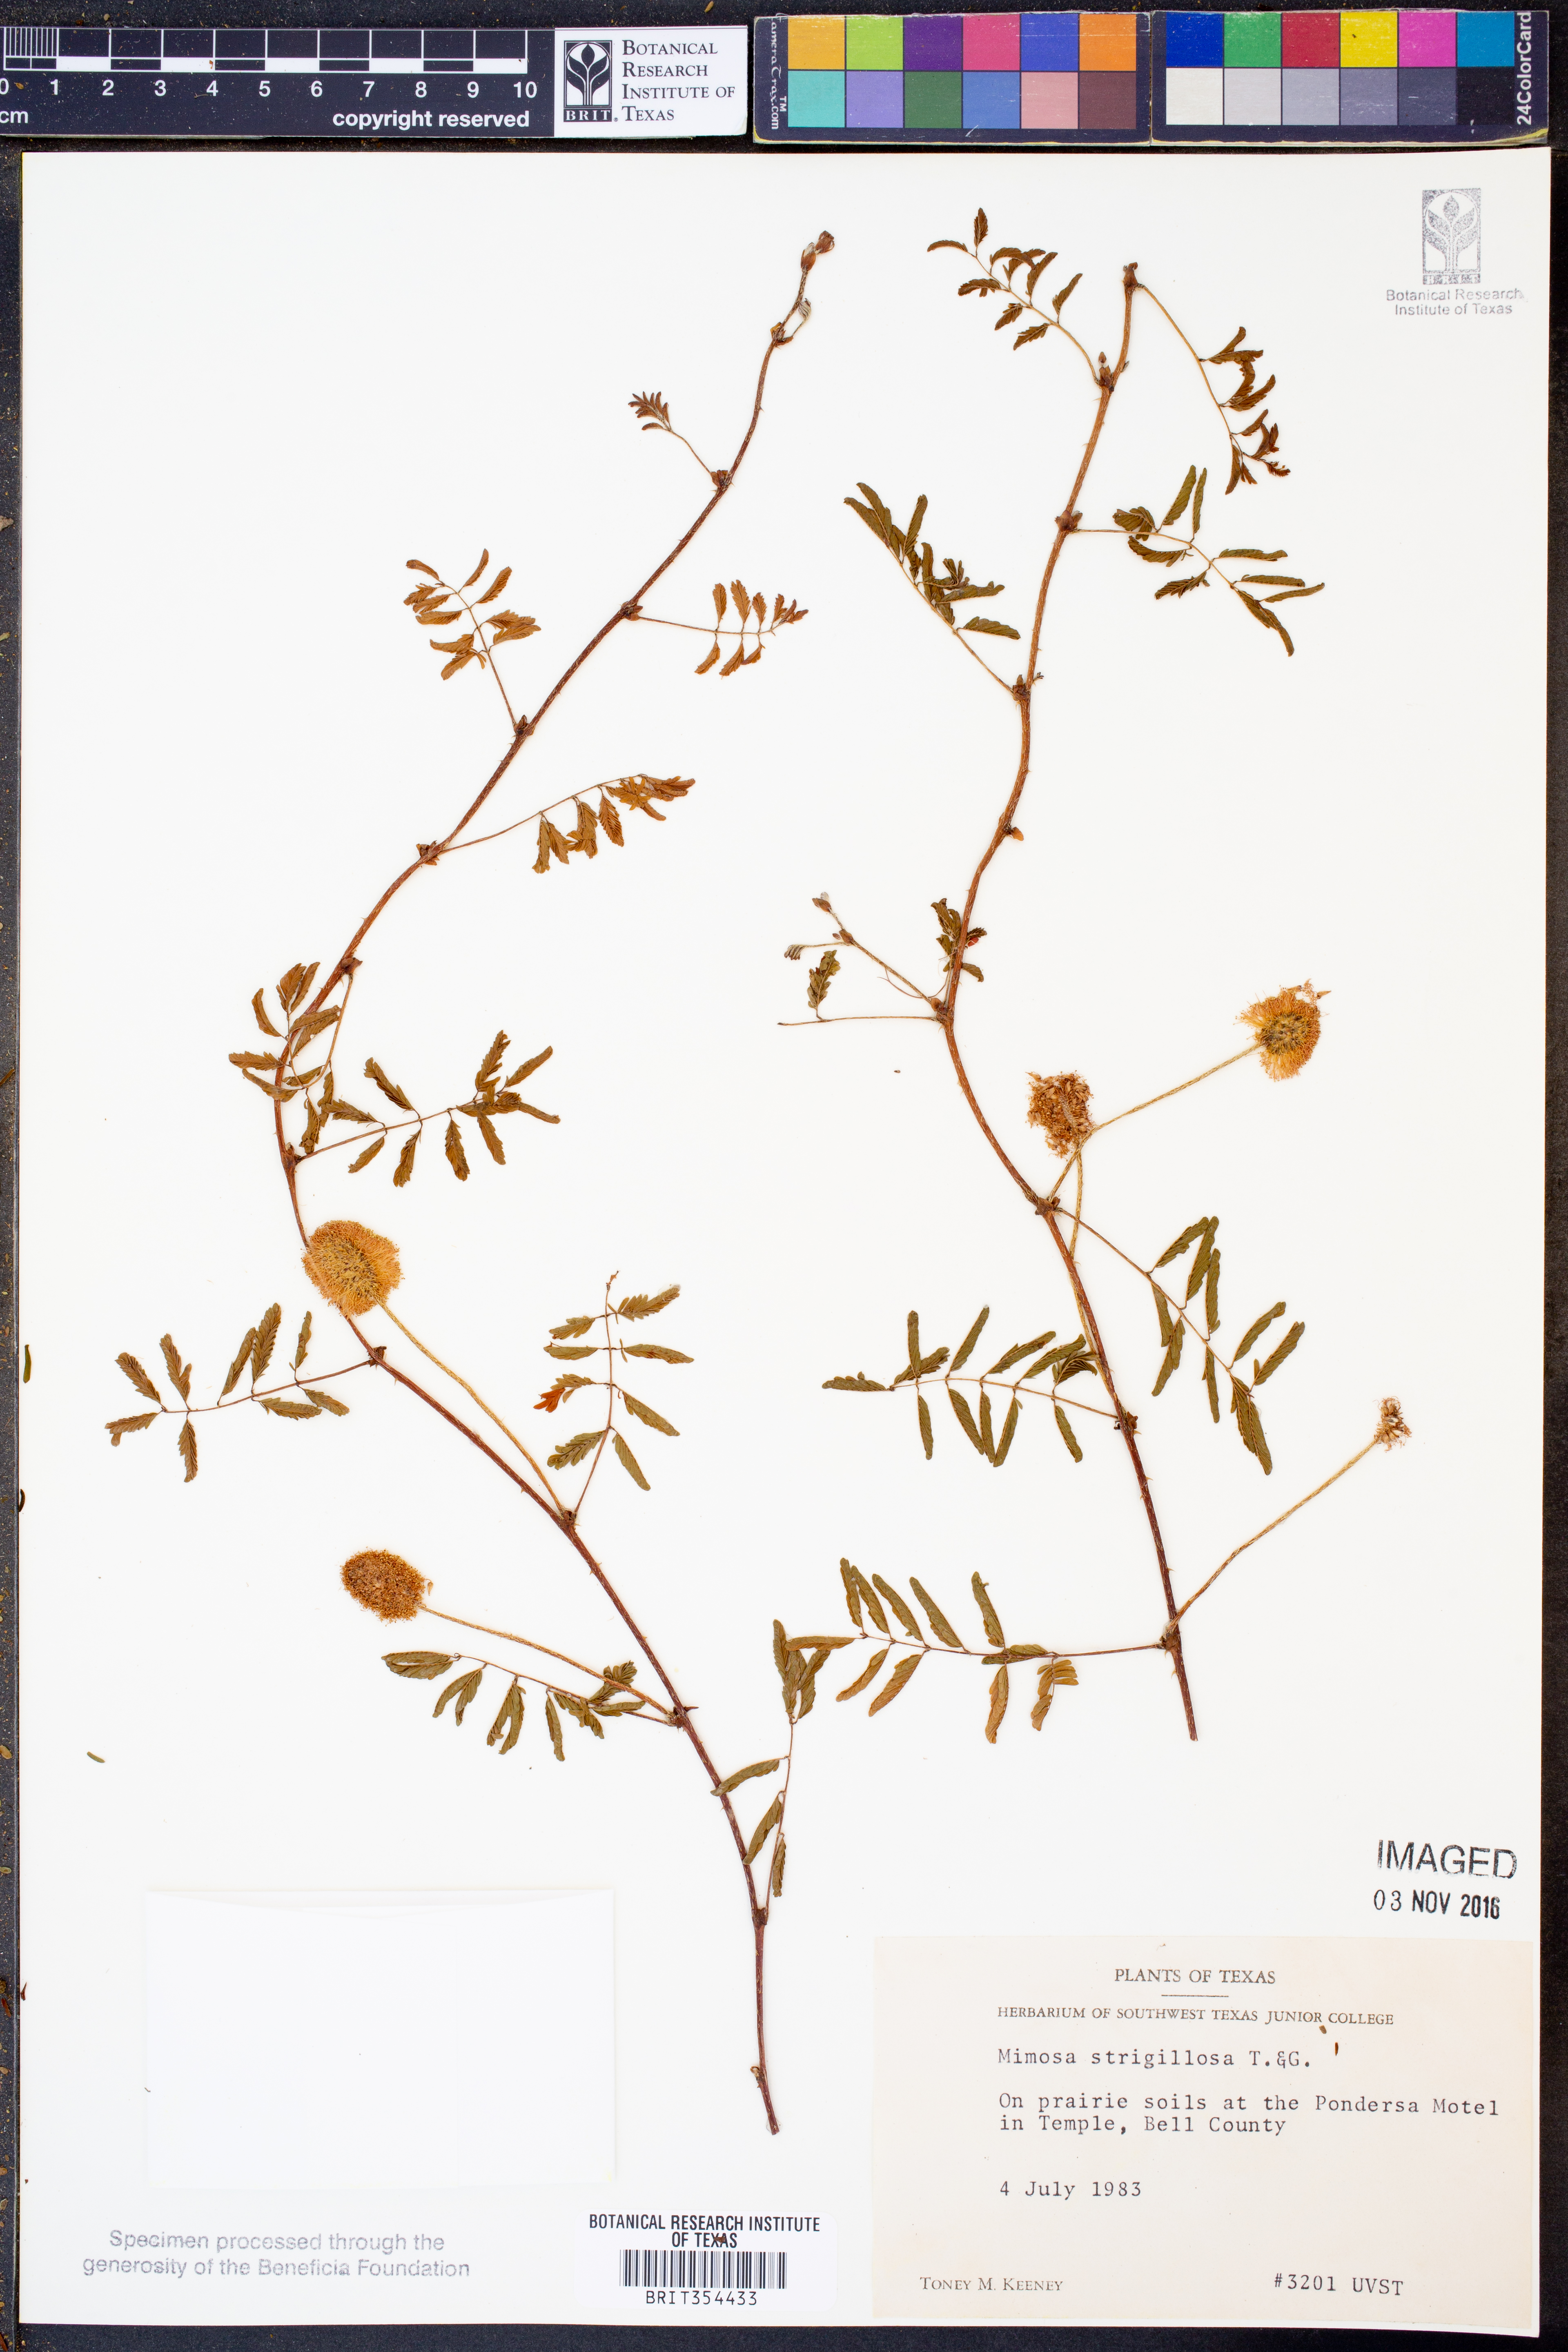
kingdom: Plantae
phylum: Tracheophyta
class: Magnoliopsida
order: Fabales
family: Fabaceae
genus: Mimosa
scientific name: Mimosa strigillosa
